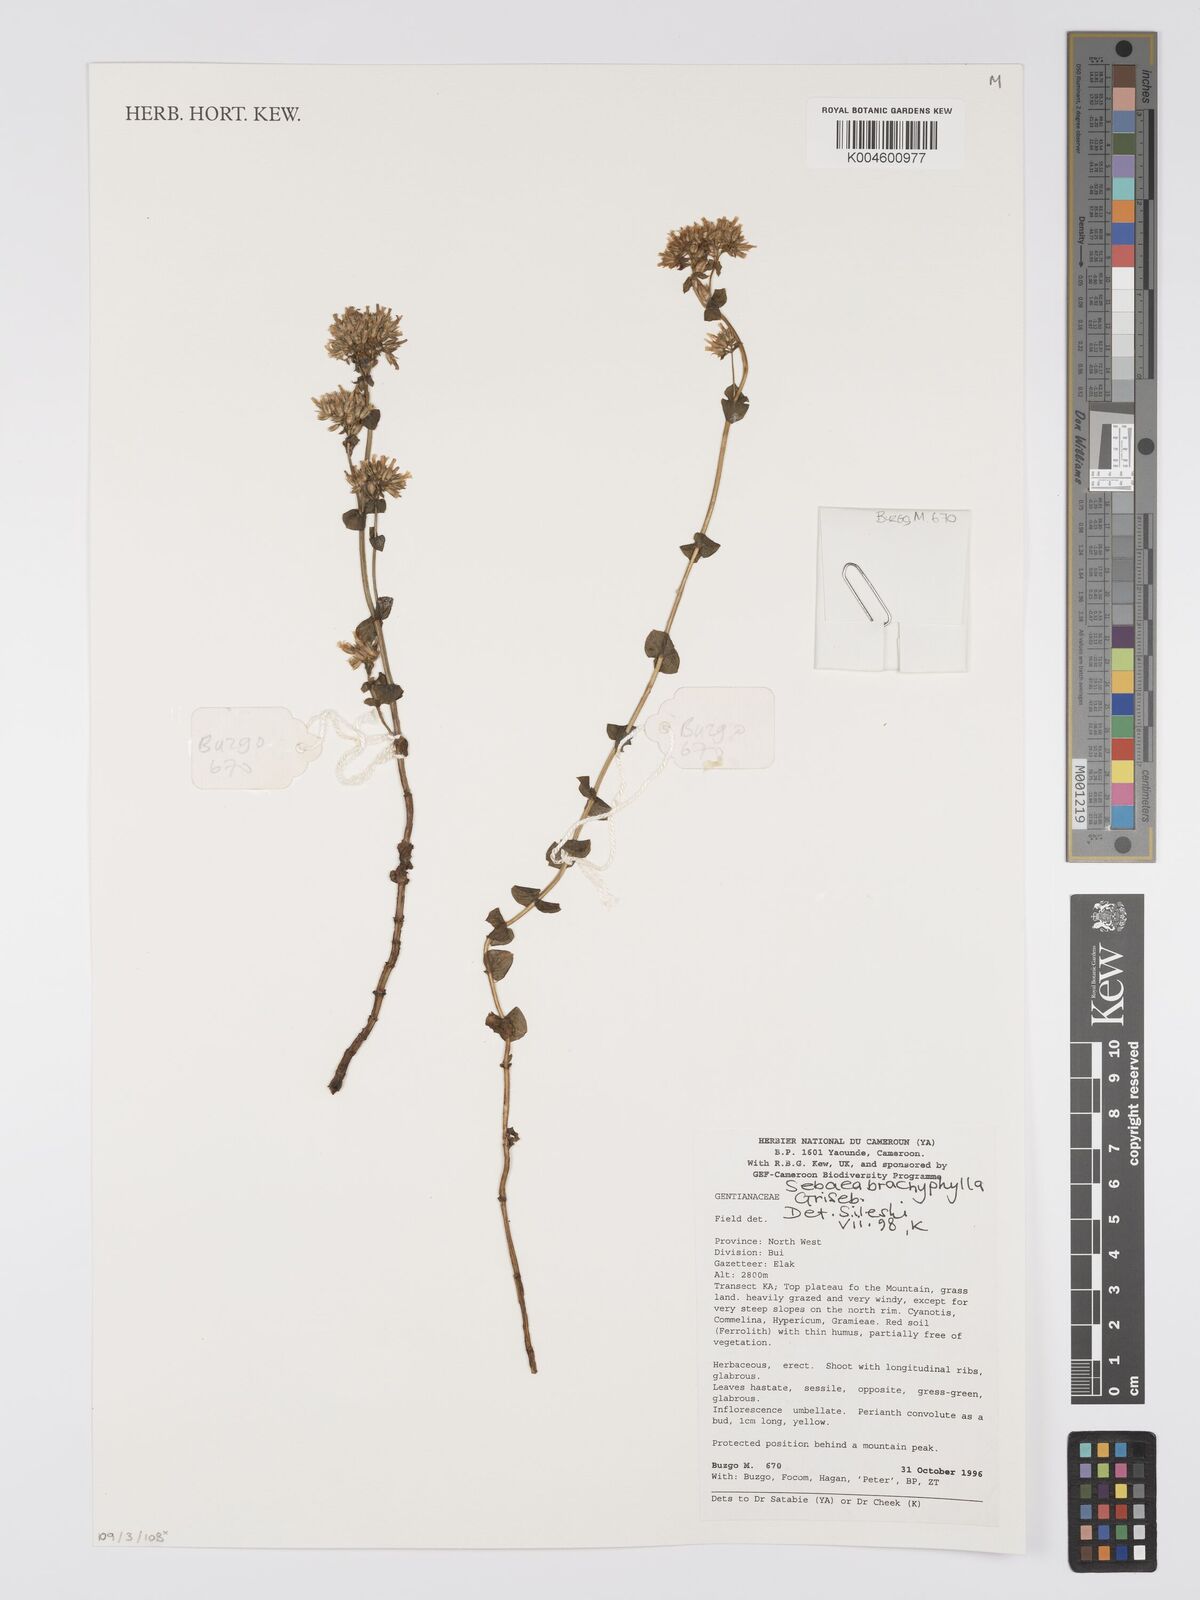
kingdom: Plantae
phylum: Tracheophyta
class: Magnoliopsida
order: Gentianales
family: Gentianaceae
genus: Sebaea
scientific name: Sebaea brachyphylla
